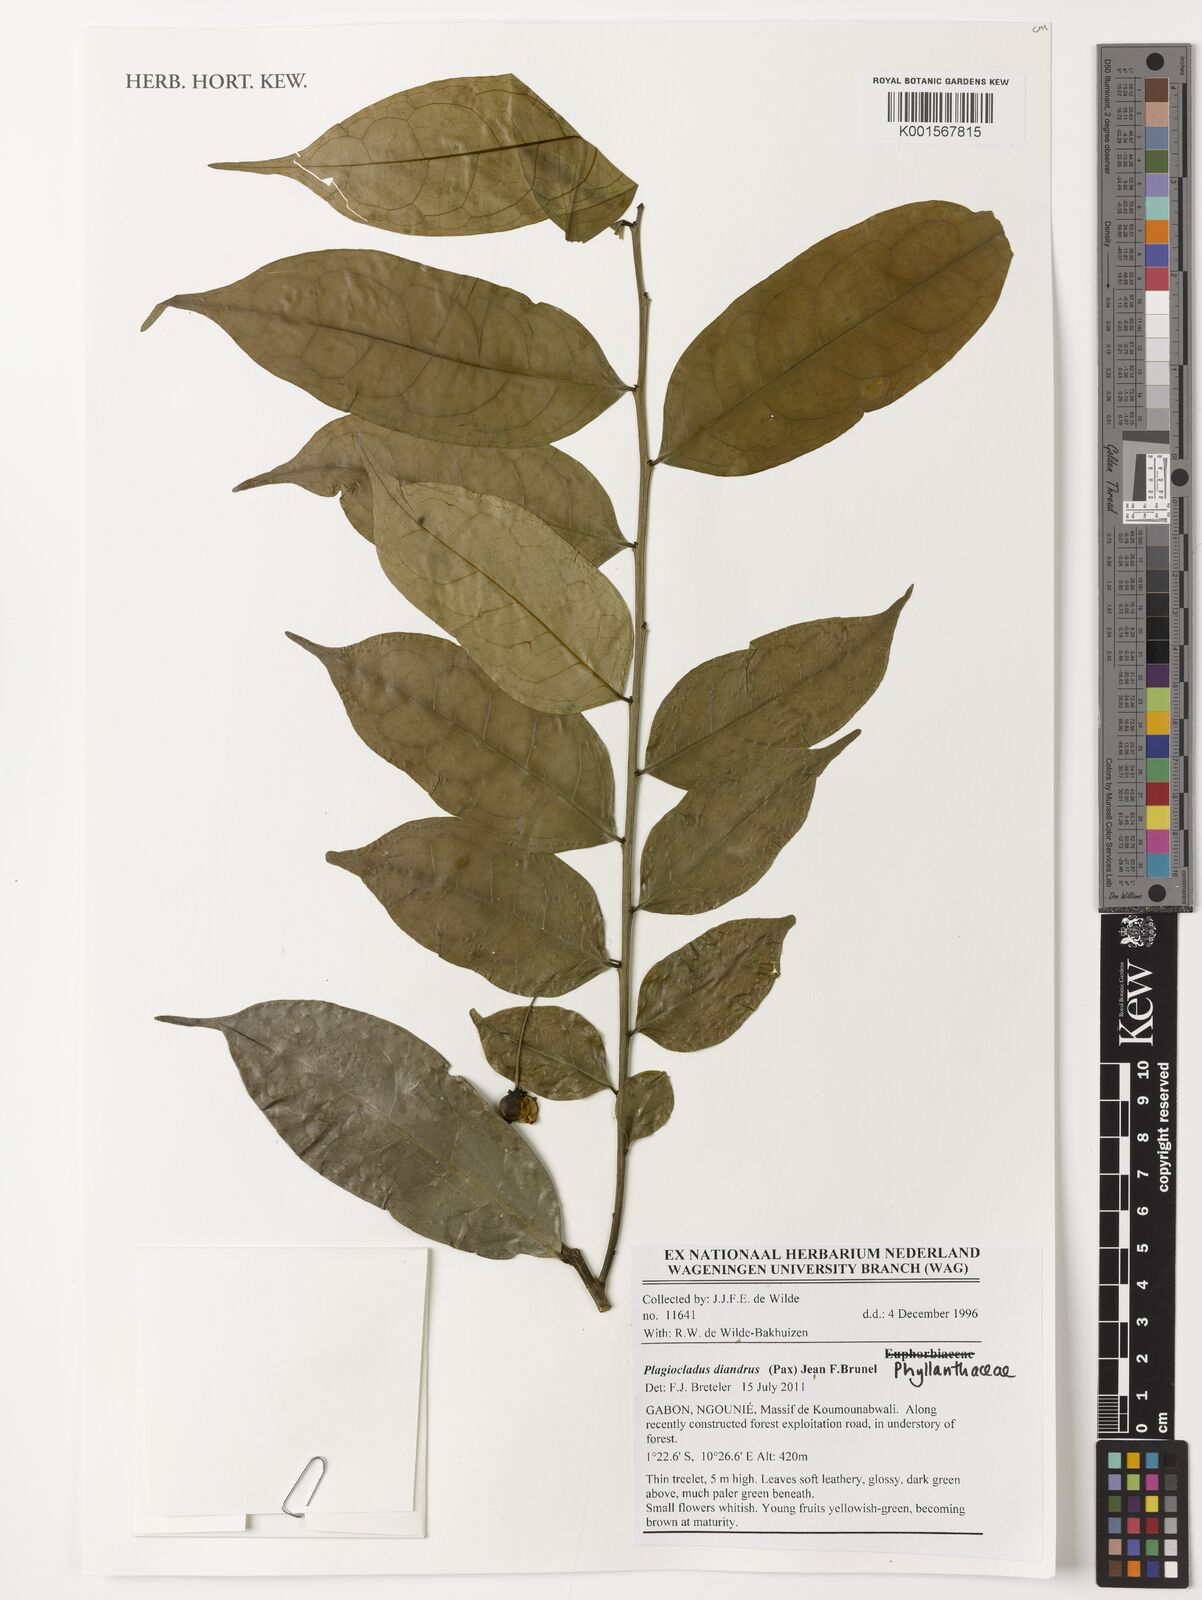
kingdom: Plantae
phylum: Tracheophyta
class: Magnoliopsida
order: Malpighiales
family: Phyllanthaceae
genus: Plagiocladus
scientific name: Plagiocladus diandrus
